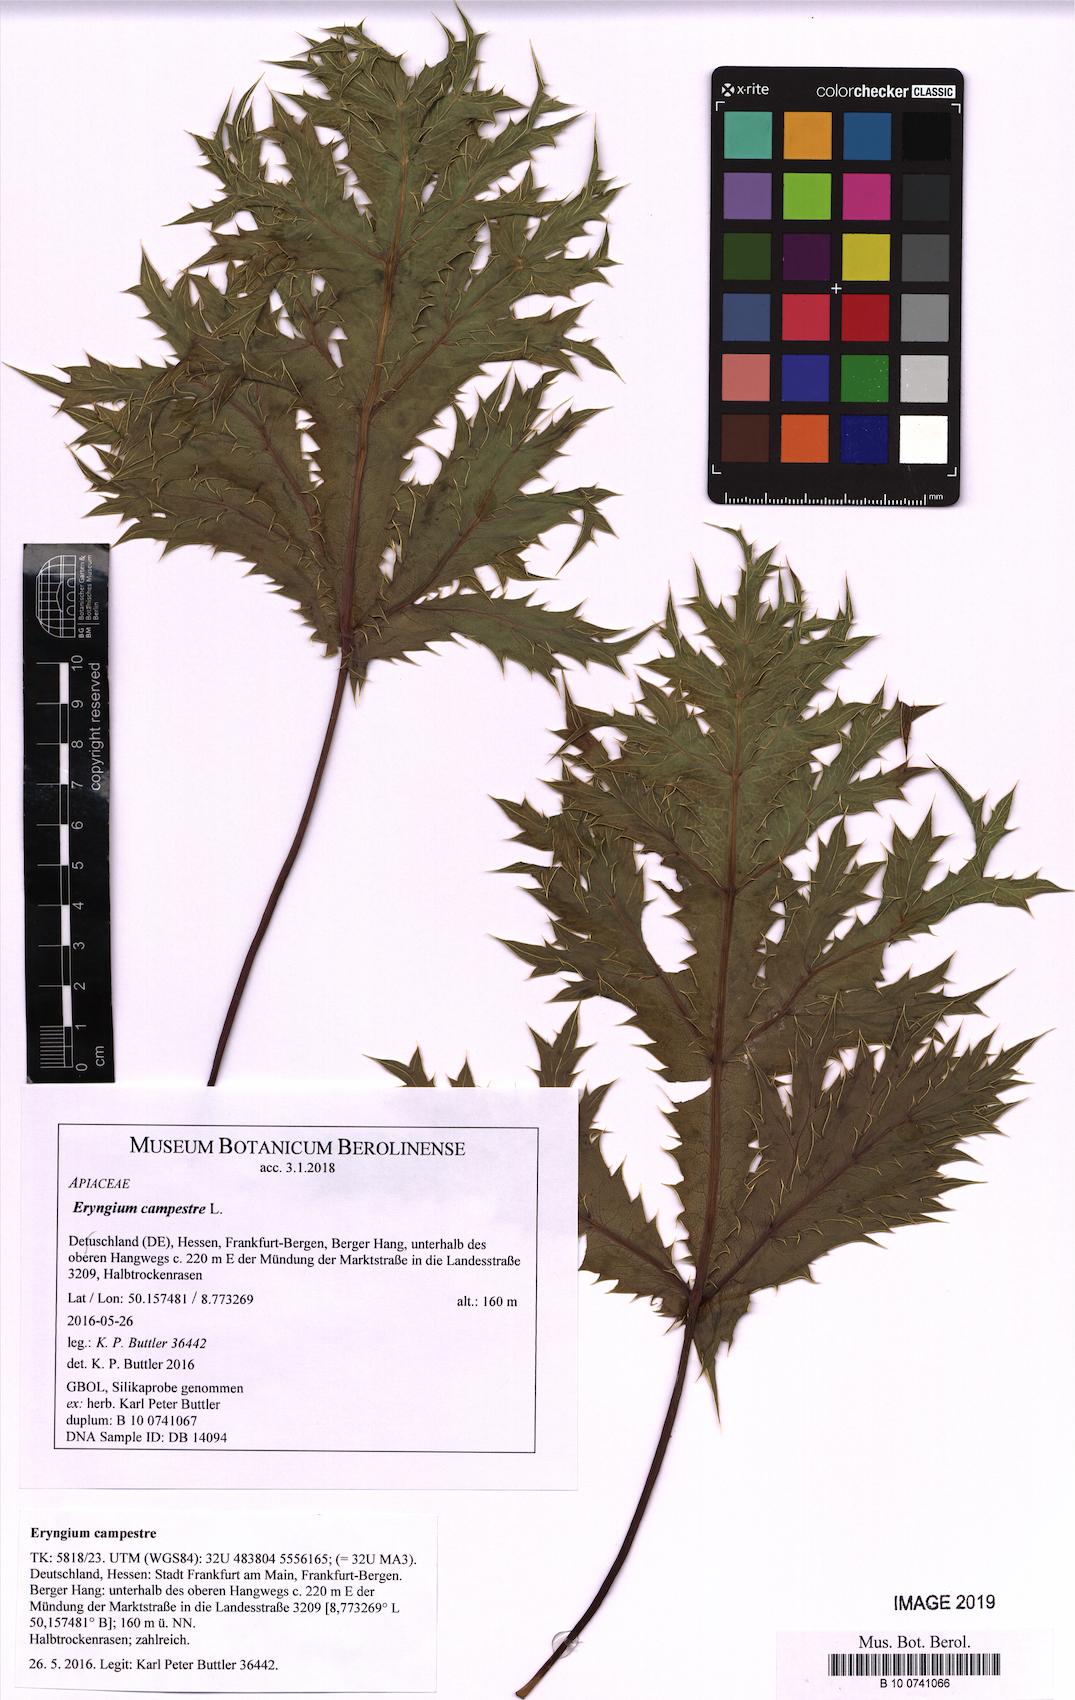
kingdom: Plantae
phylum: Tracheophyta
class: Magnoliopsida
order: Apiales
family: Apiaceae
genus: Eryngium
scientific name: Eryngium campestre
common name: Field eryngo
